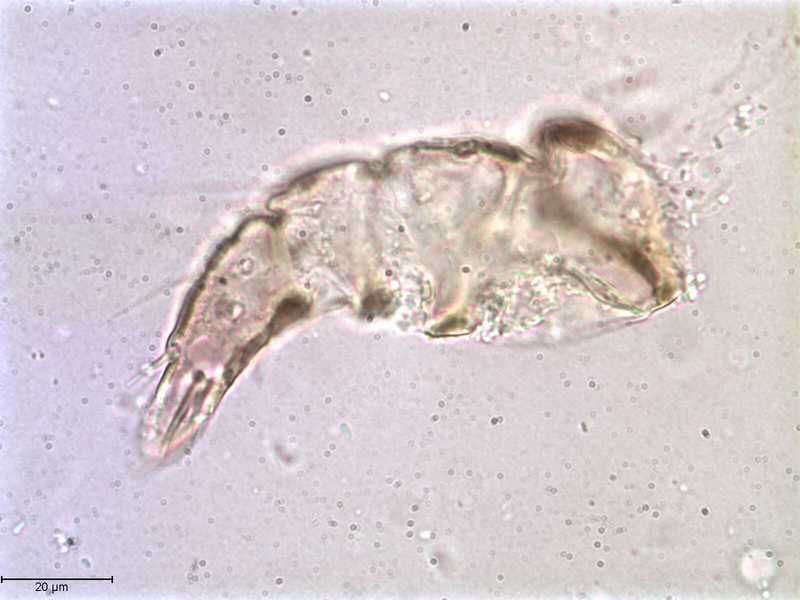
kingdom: Animalia
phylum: Arthropoda
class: Arachnida
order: Mesostigmata
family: Halarachnidae
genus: Orthohalarachne
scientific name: Orthohalarachne letalis
